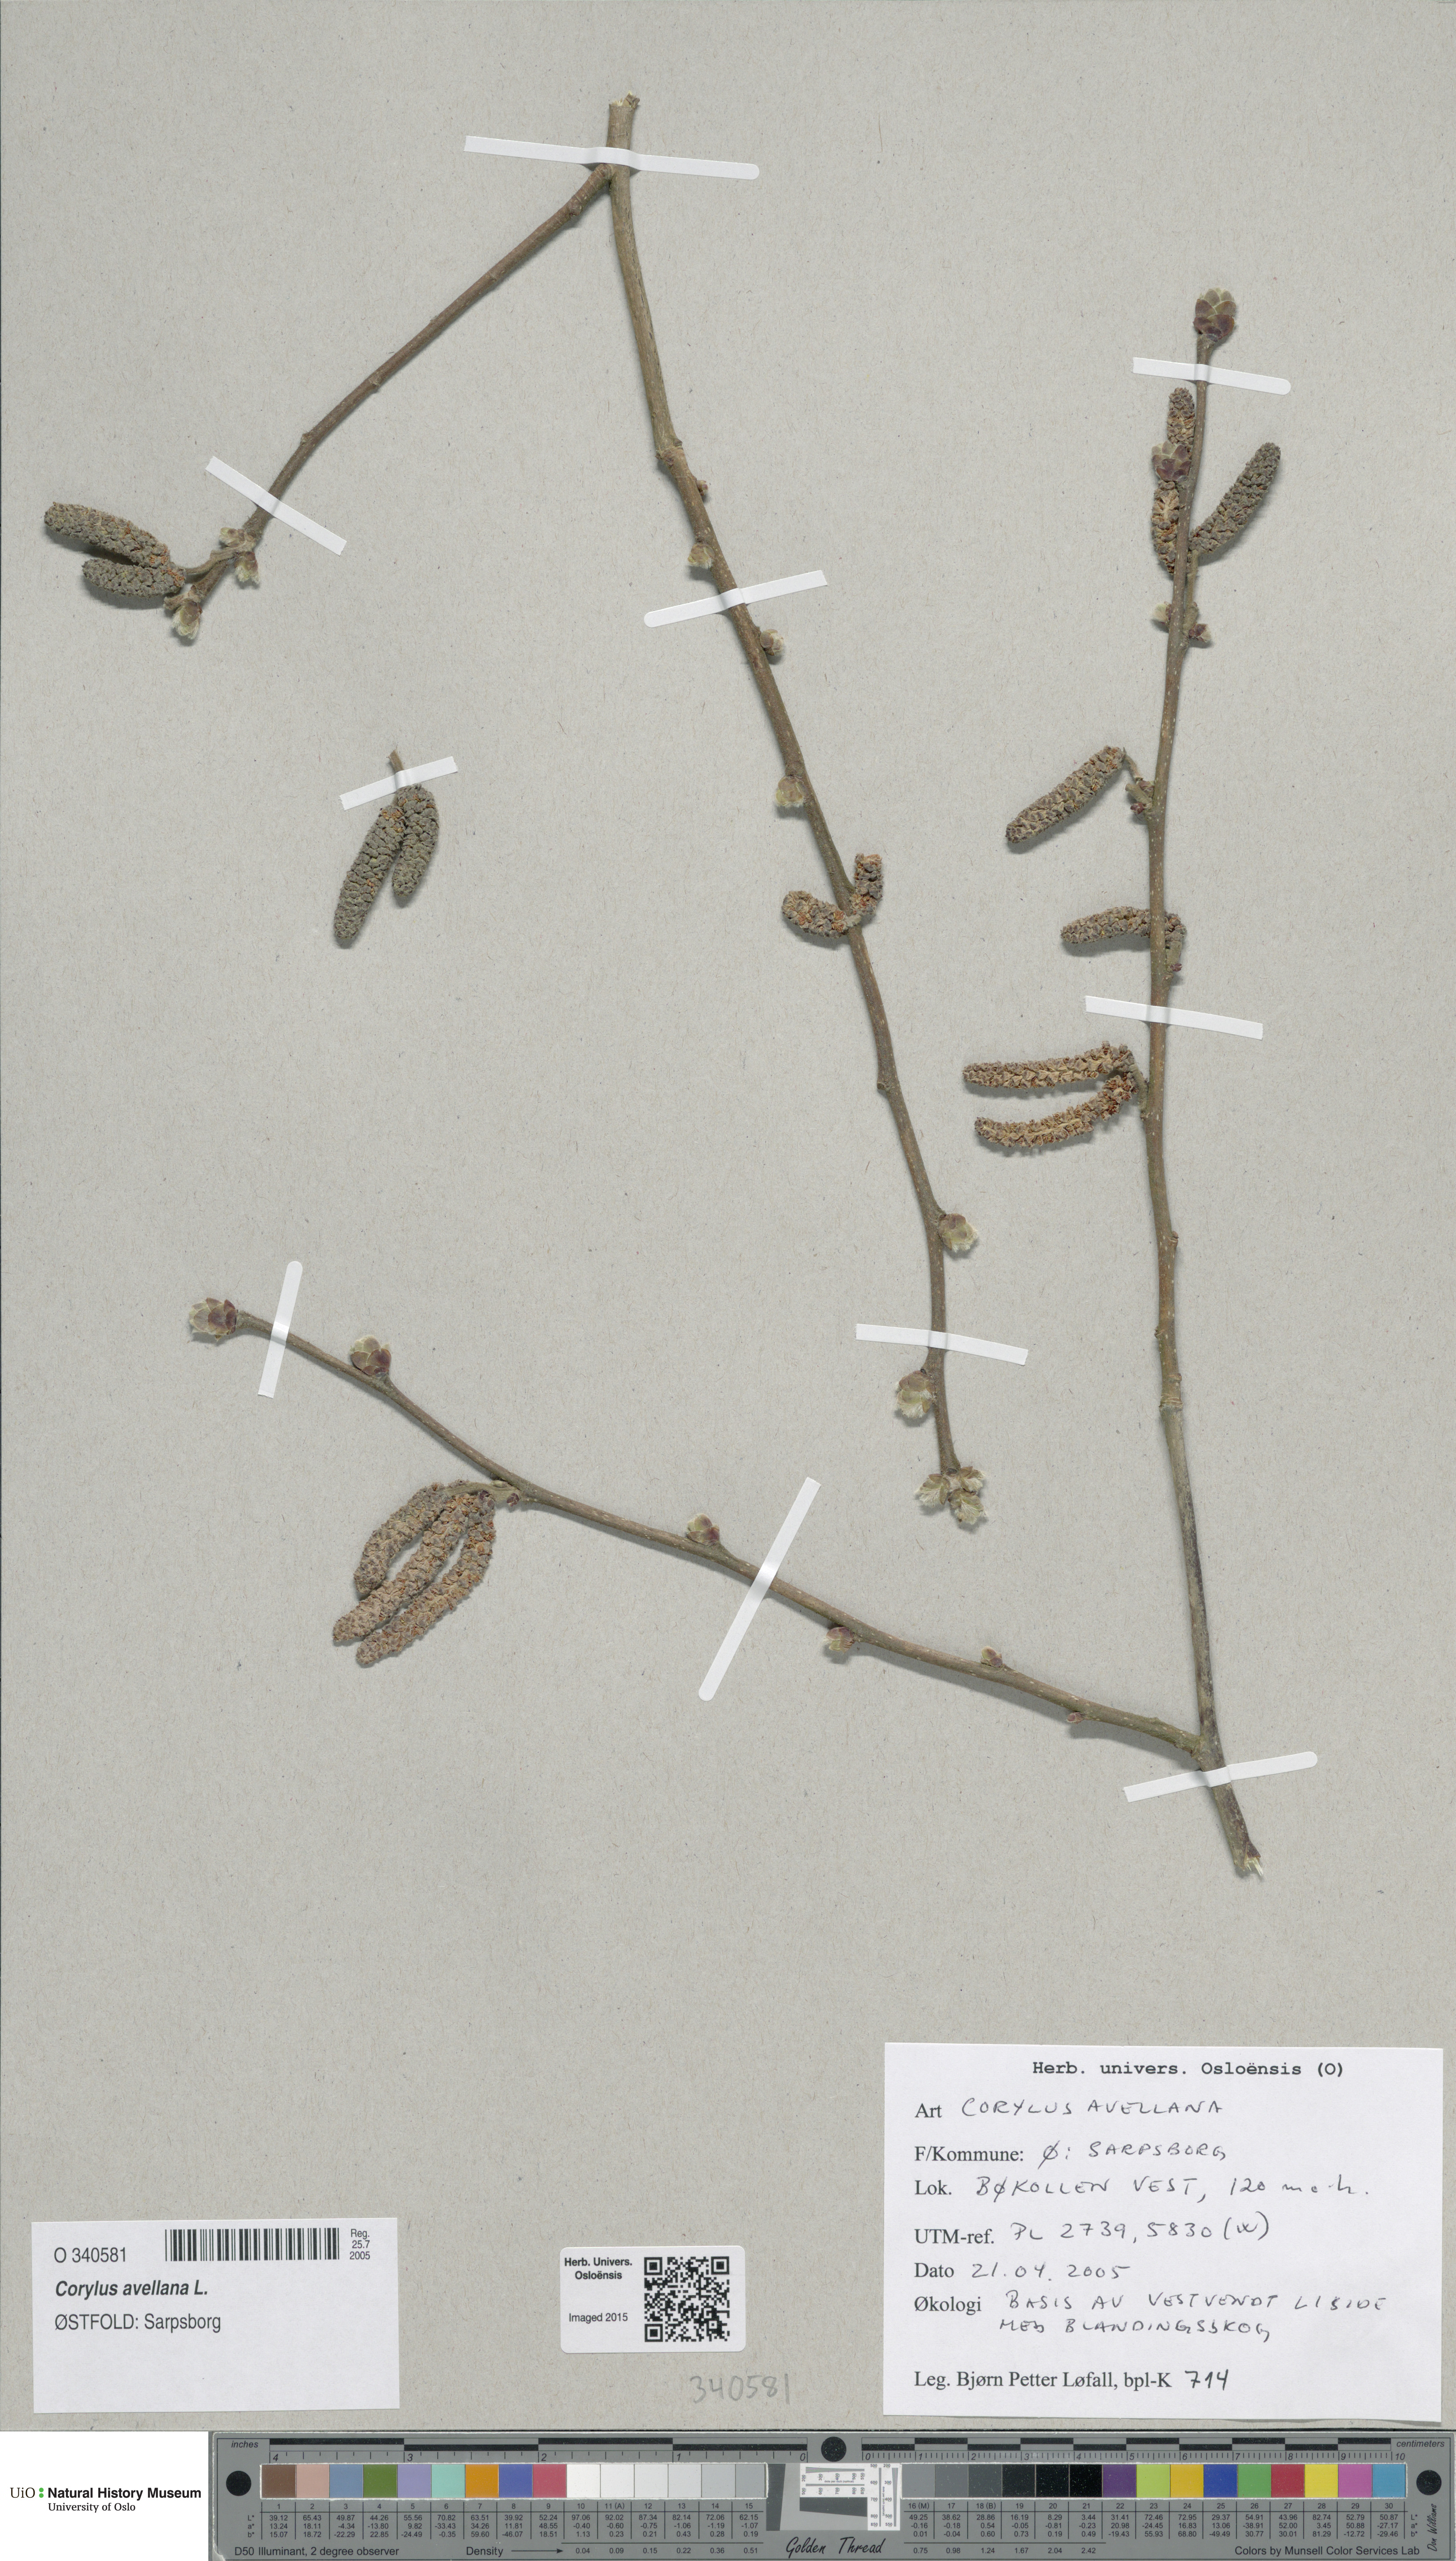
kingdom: Plantae
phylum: Tracheophyta
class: Magnoliopsida
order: Fagales
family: Betulaceae
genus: Corylus
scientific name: Corylus avellana
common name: European hazel
